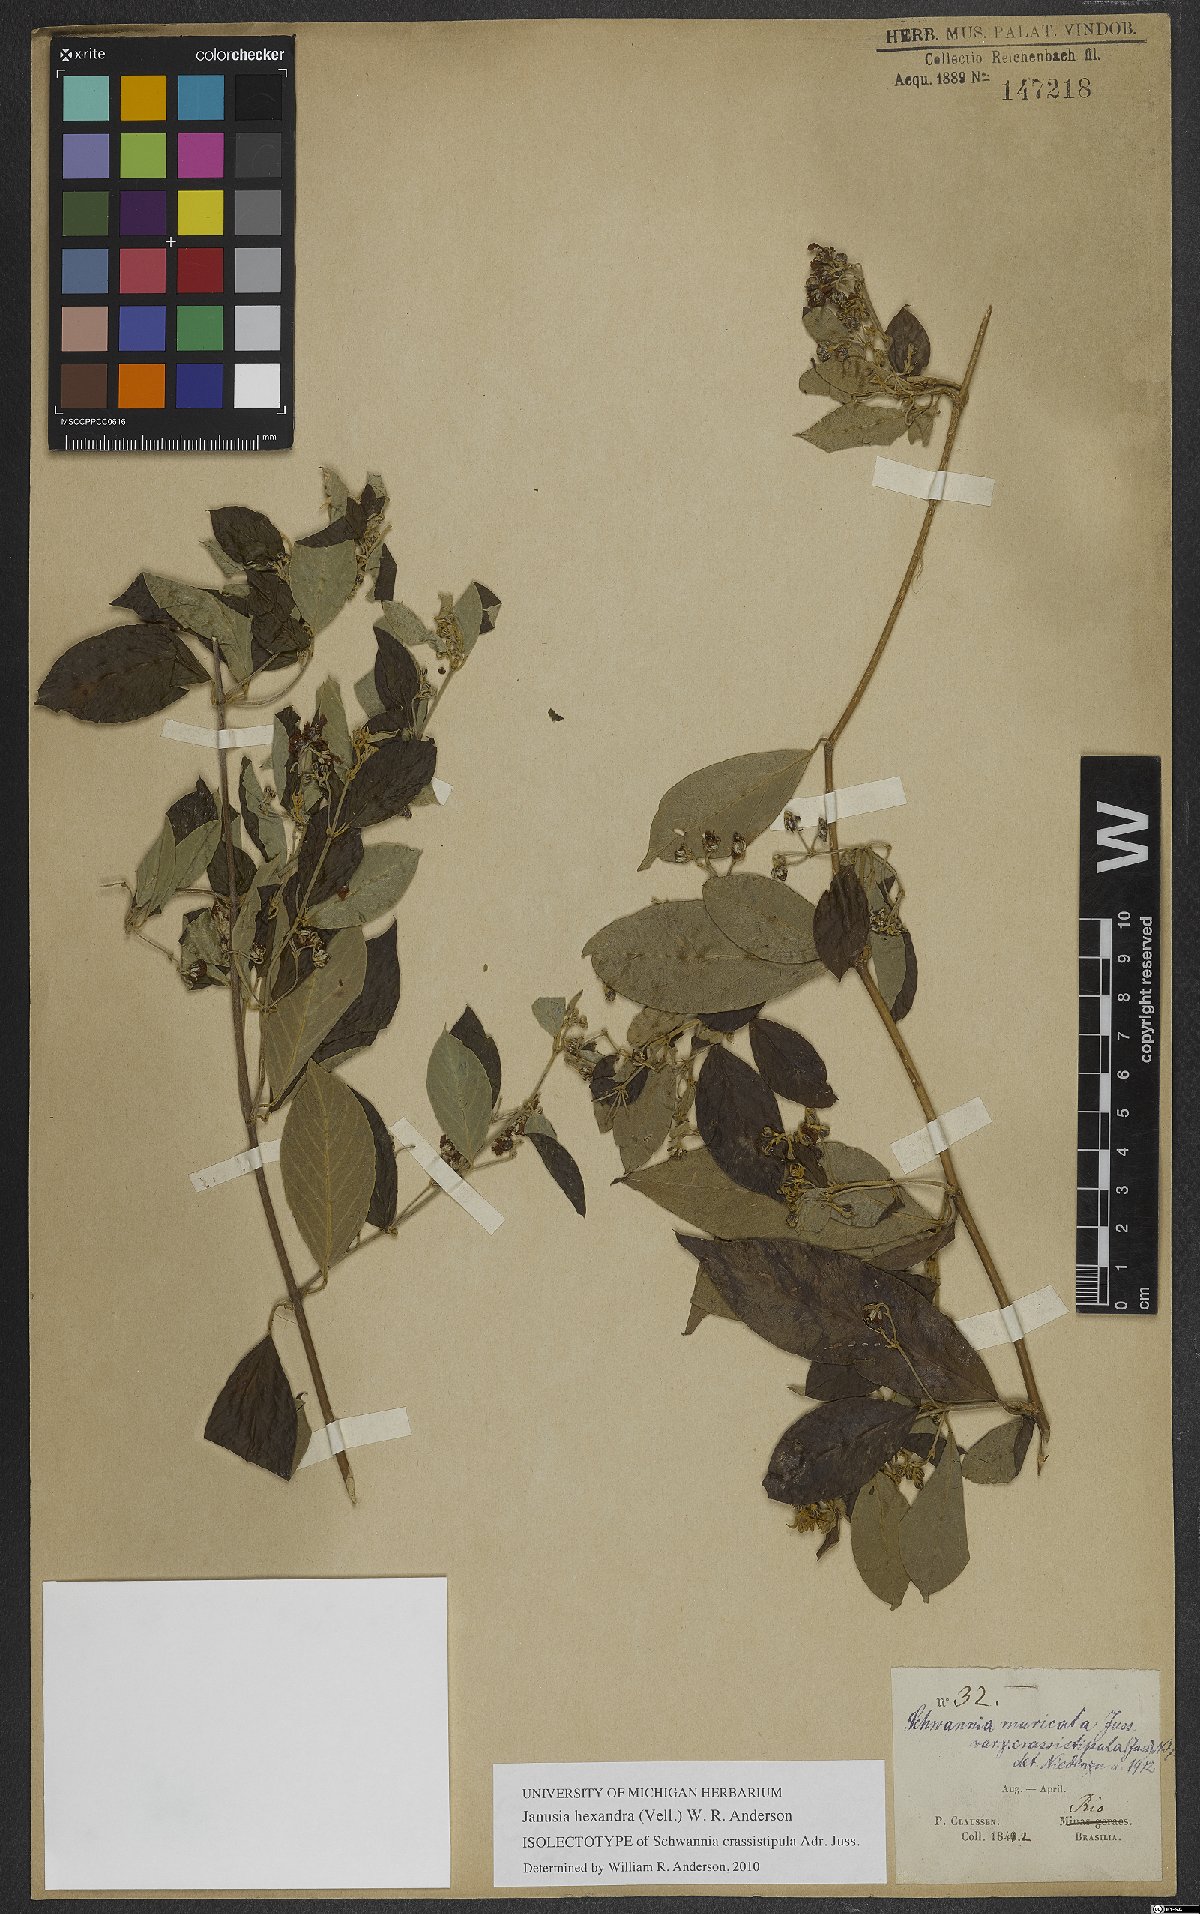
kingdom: Plantae
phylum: Tracheophyta
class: Magnoliopsida
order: Malpighiales
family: Malpighiaceae
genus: Janusia
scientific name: Janusia hexandra
